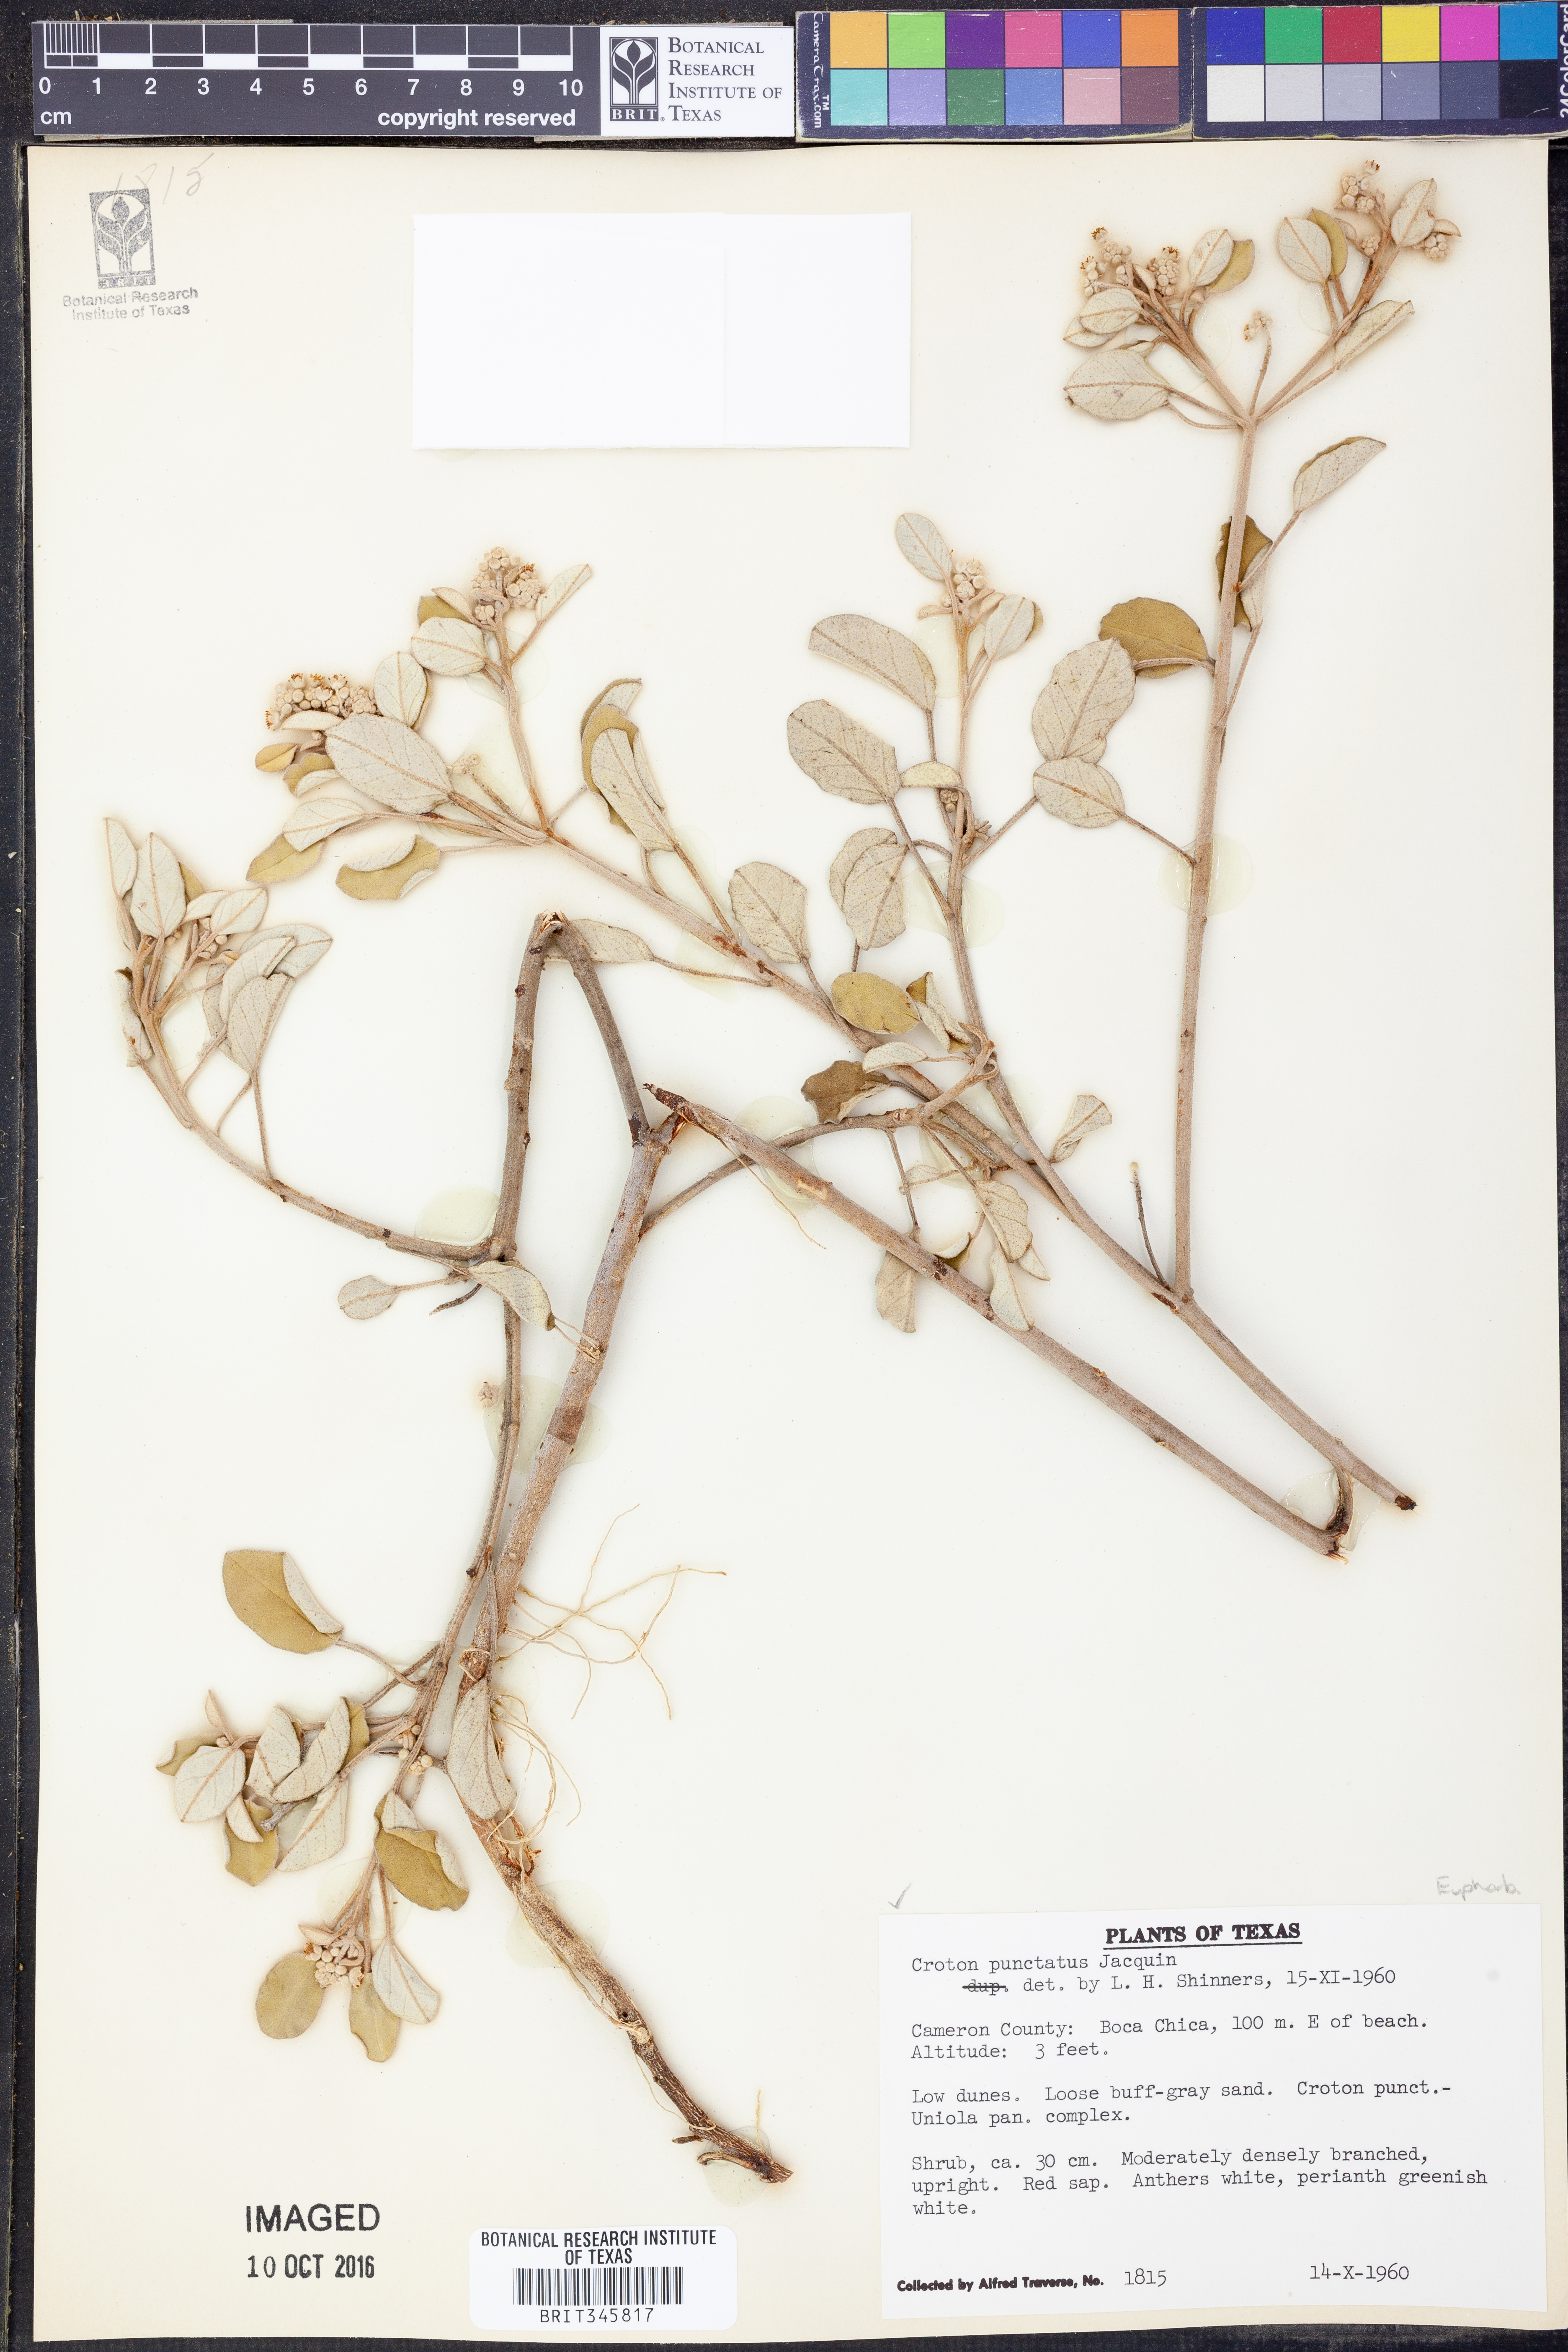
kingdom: Plantae
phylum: Tracheophyta
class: Magnoliopsida
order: Malpighiales
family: Euphorbiaceae
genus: Croton
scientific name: Croton punctatus
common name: Beach-tea
